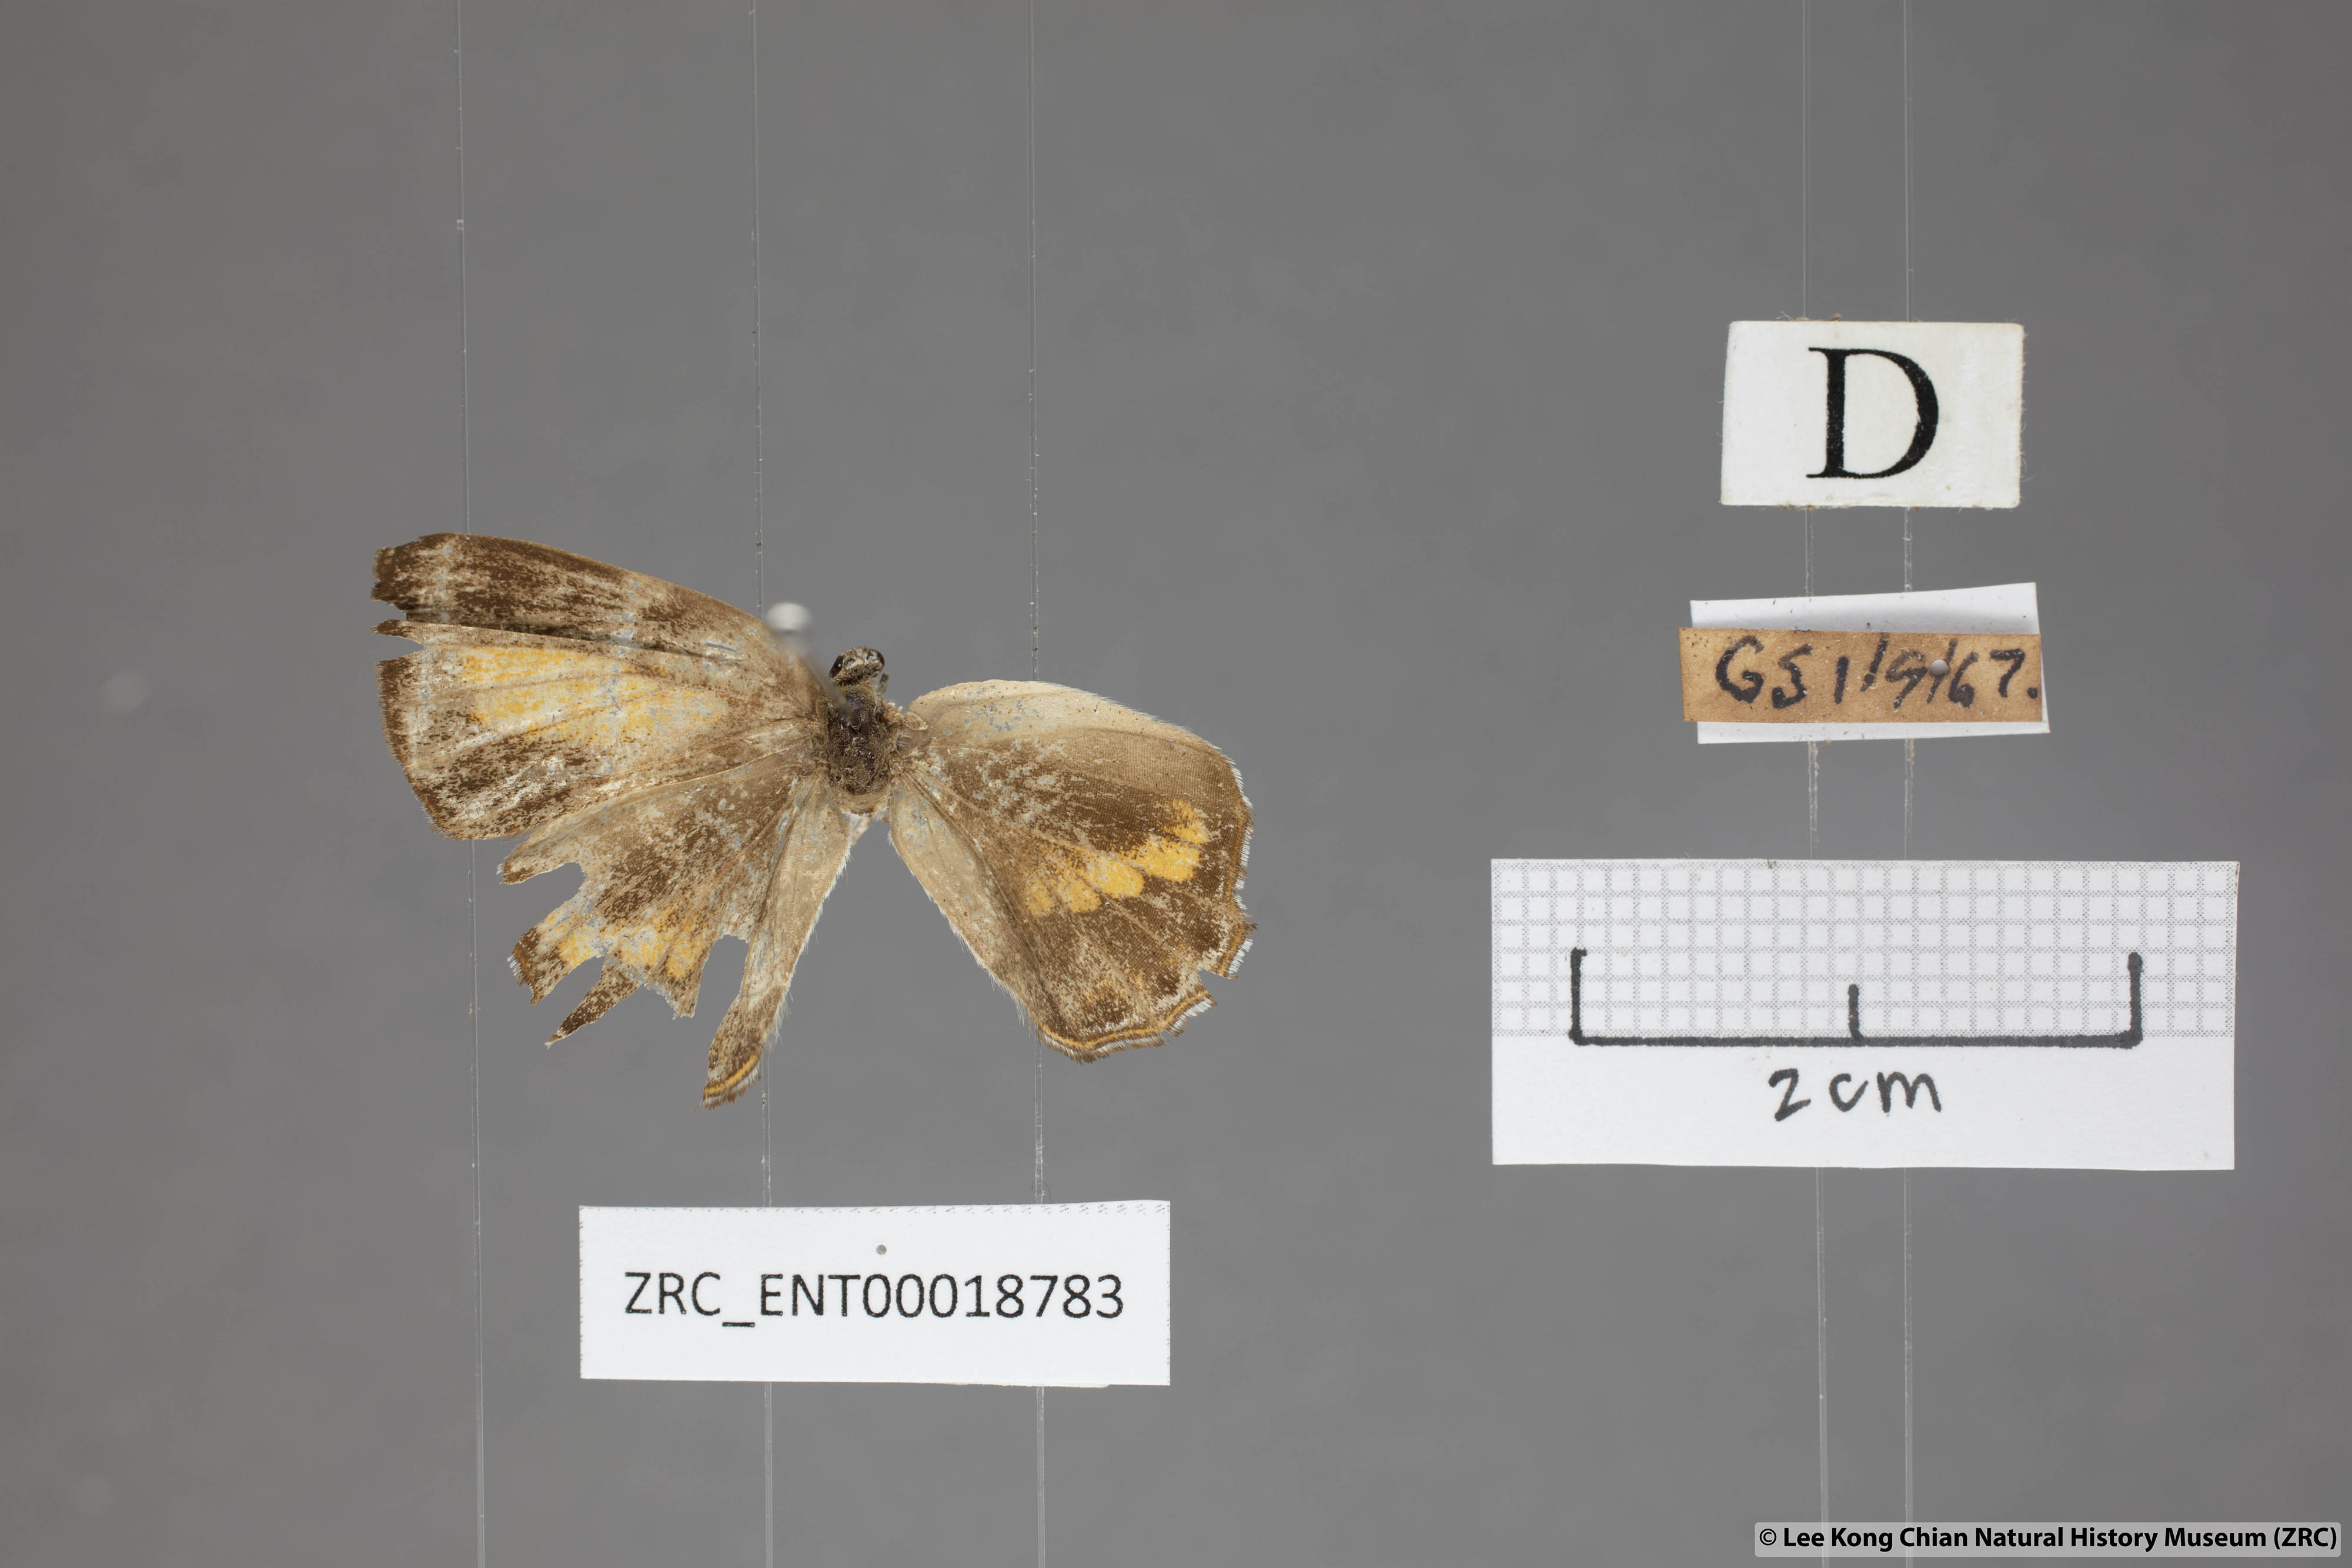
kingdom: Animalia
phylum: Arthropoda
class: Insecta
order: Lepidoptera
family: Lycaenidae
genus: Poritia
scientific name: Poritia erycinoides
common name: Blue gem
